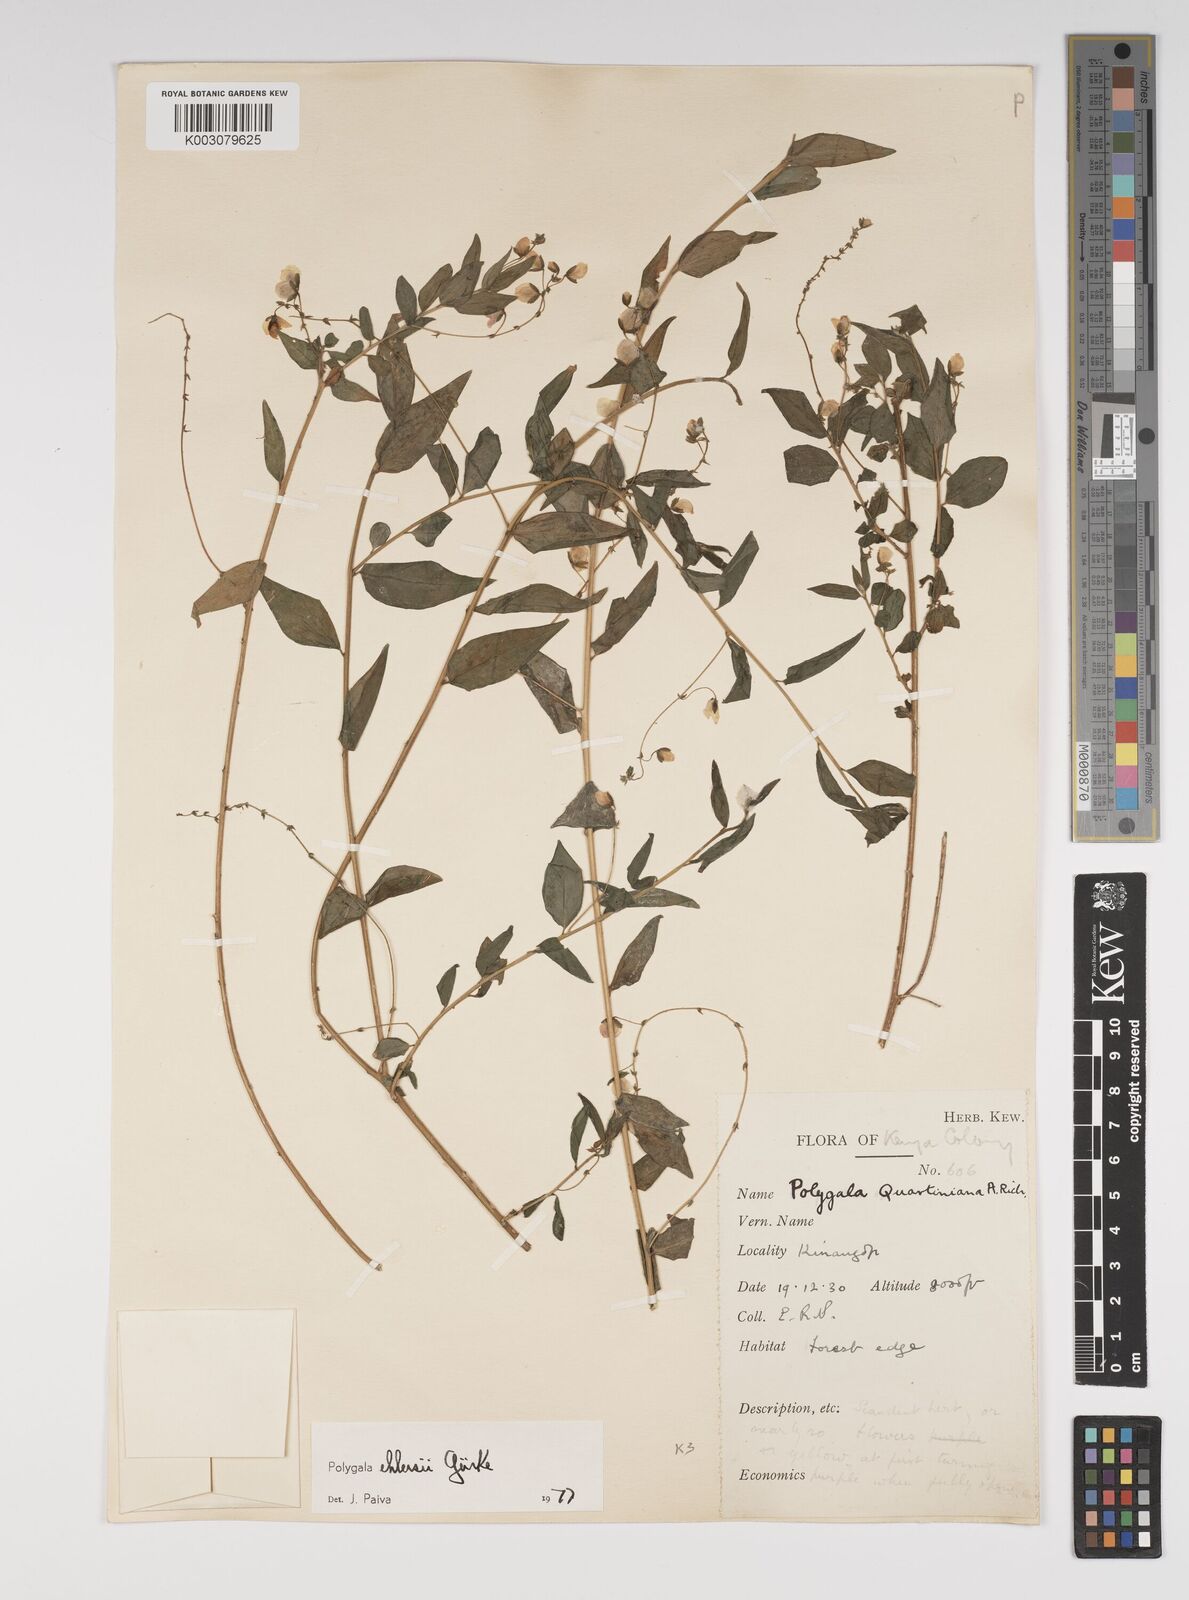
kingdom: Plantae
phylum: Tracheophyta
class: Magnoliopsida
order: Fabales
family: Polygalaceae
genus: Polygala
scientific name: Polygala ehlersii
